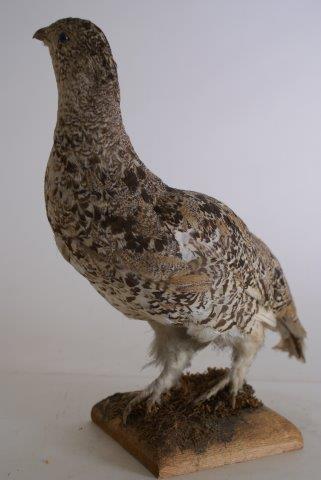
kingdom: Animalia
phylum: Chordata
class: Aves
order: Galliformes
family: Phasianidae
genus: Lagopus
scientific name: Lagopus muta
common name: Alpensneeuwhoen
